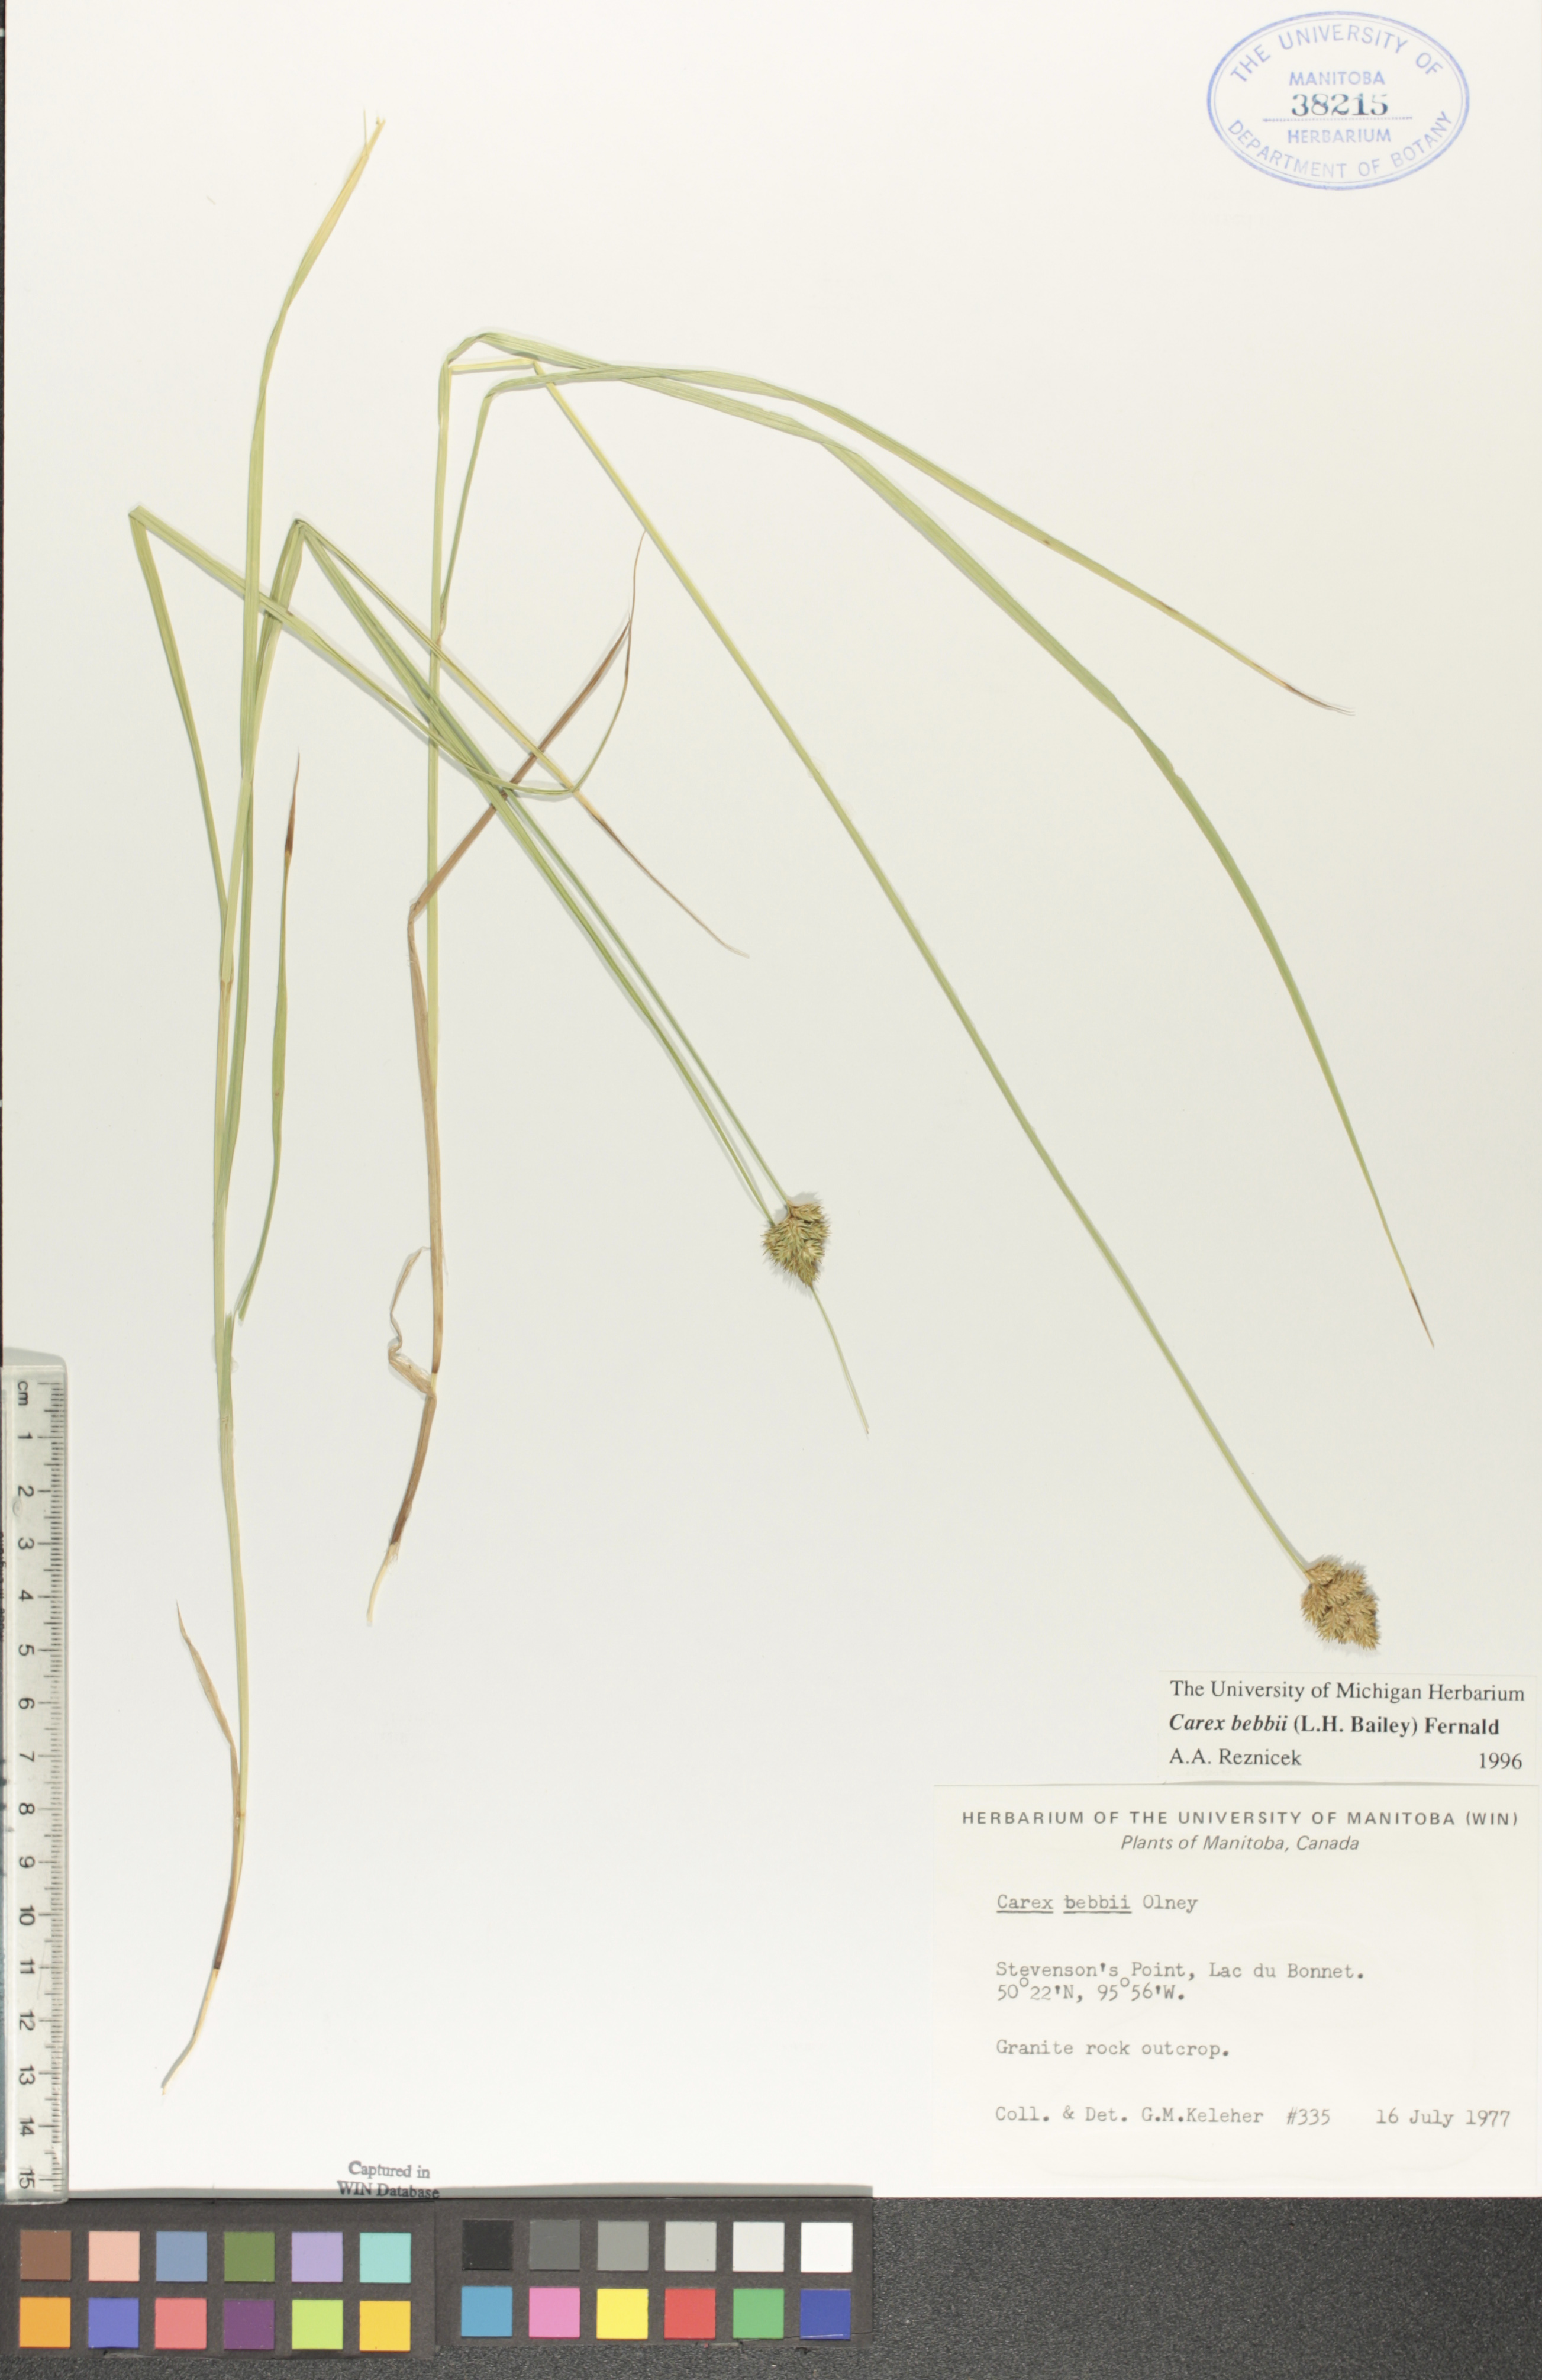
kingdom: Plantae
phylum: Tracheophyta
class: Liliopsida
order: Poales
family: Cyperaceae
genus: Carex
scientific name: Carex bebbii
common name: Bebb's sedge
